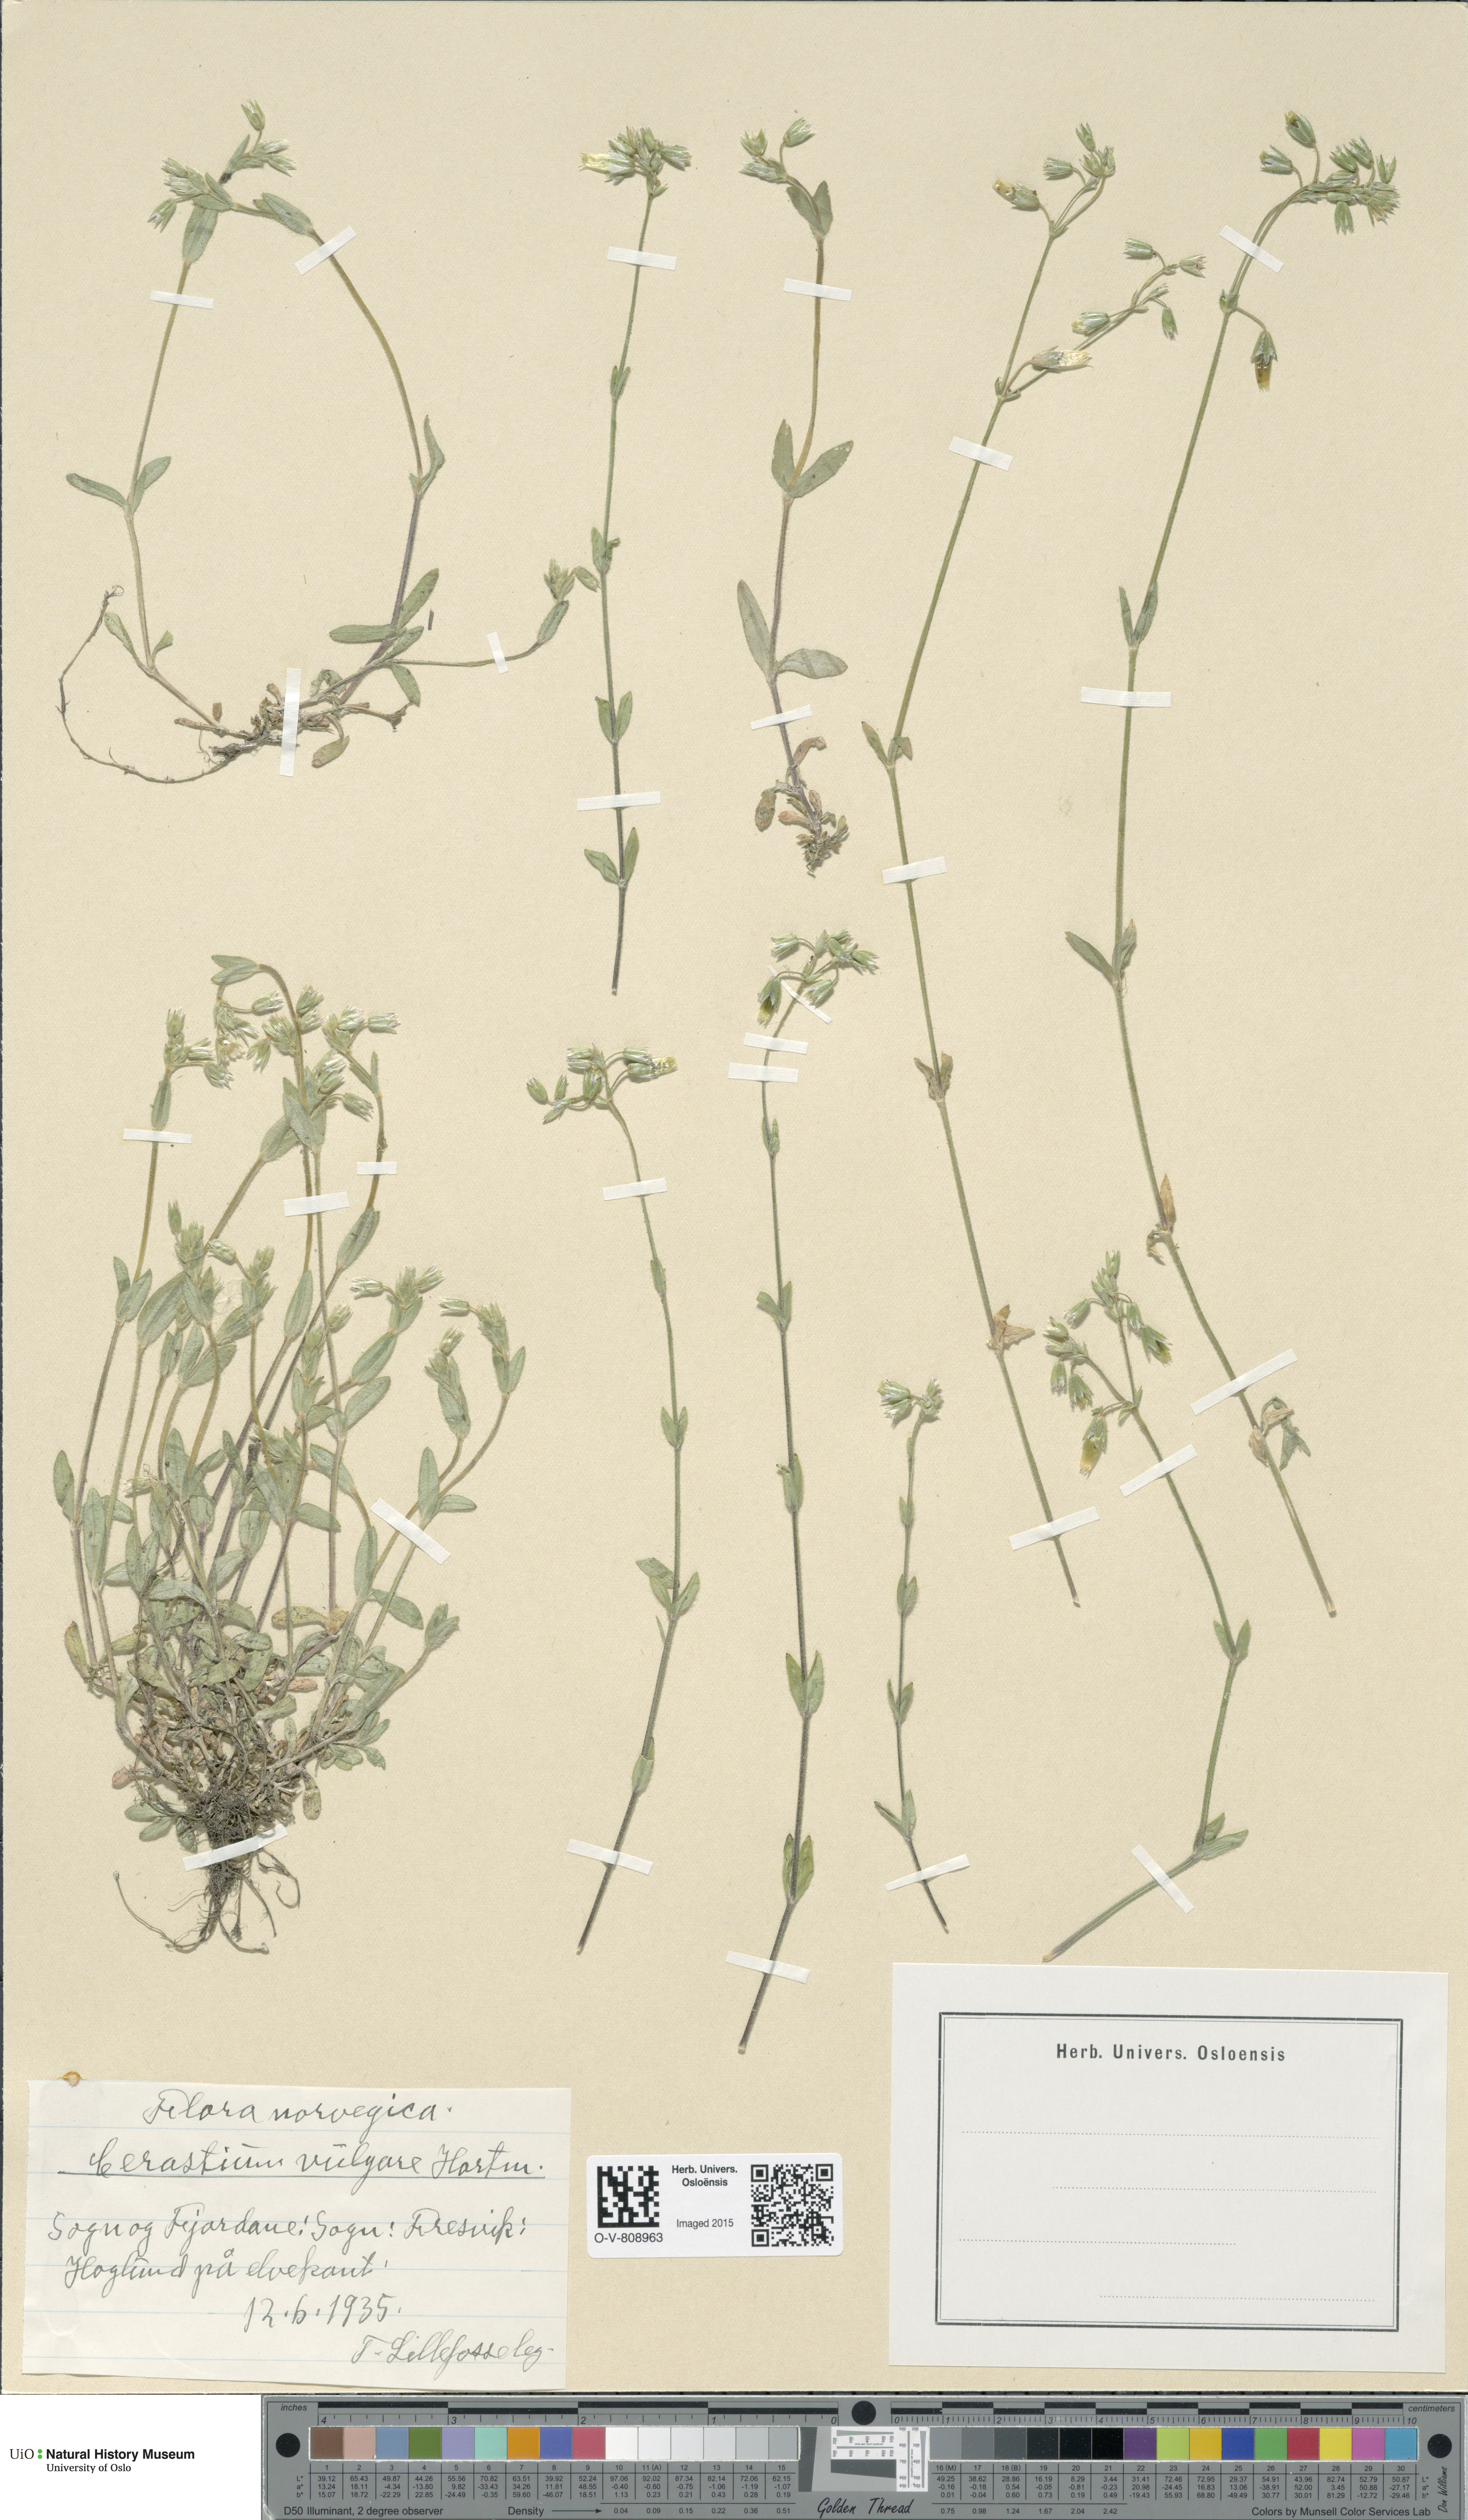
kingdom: Plantae
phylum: Tracheophyta
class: Magnoliopsida
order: Caryophyllales
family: Caryophyllaceae
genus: Cerastium
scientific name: Cerastium holosteoides
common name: Big chickweed
